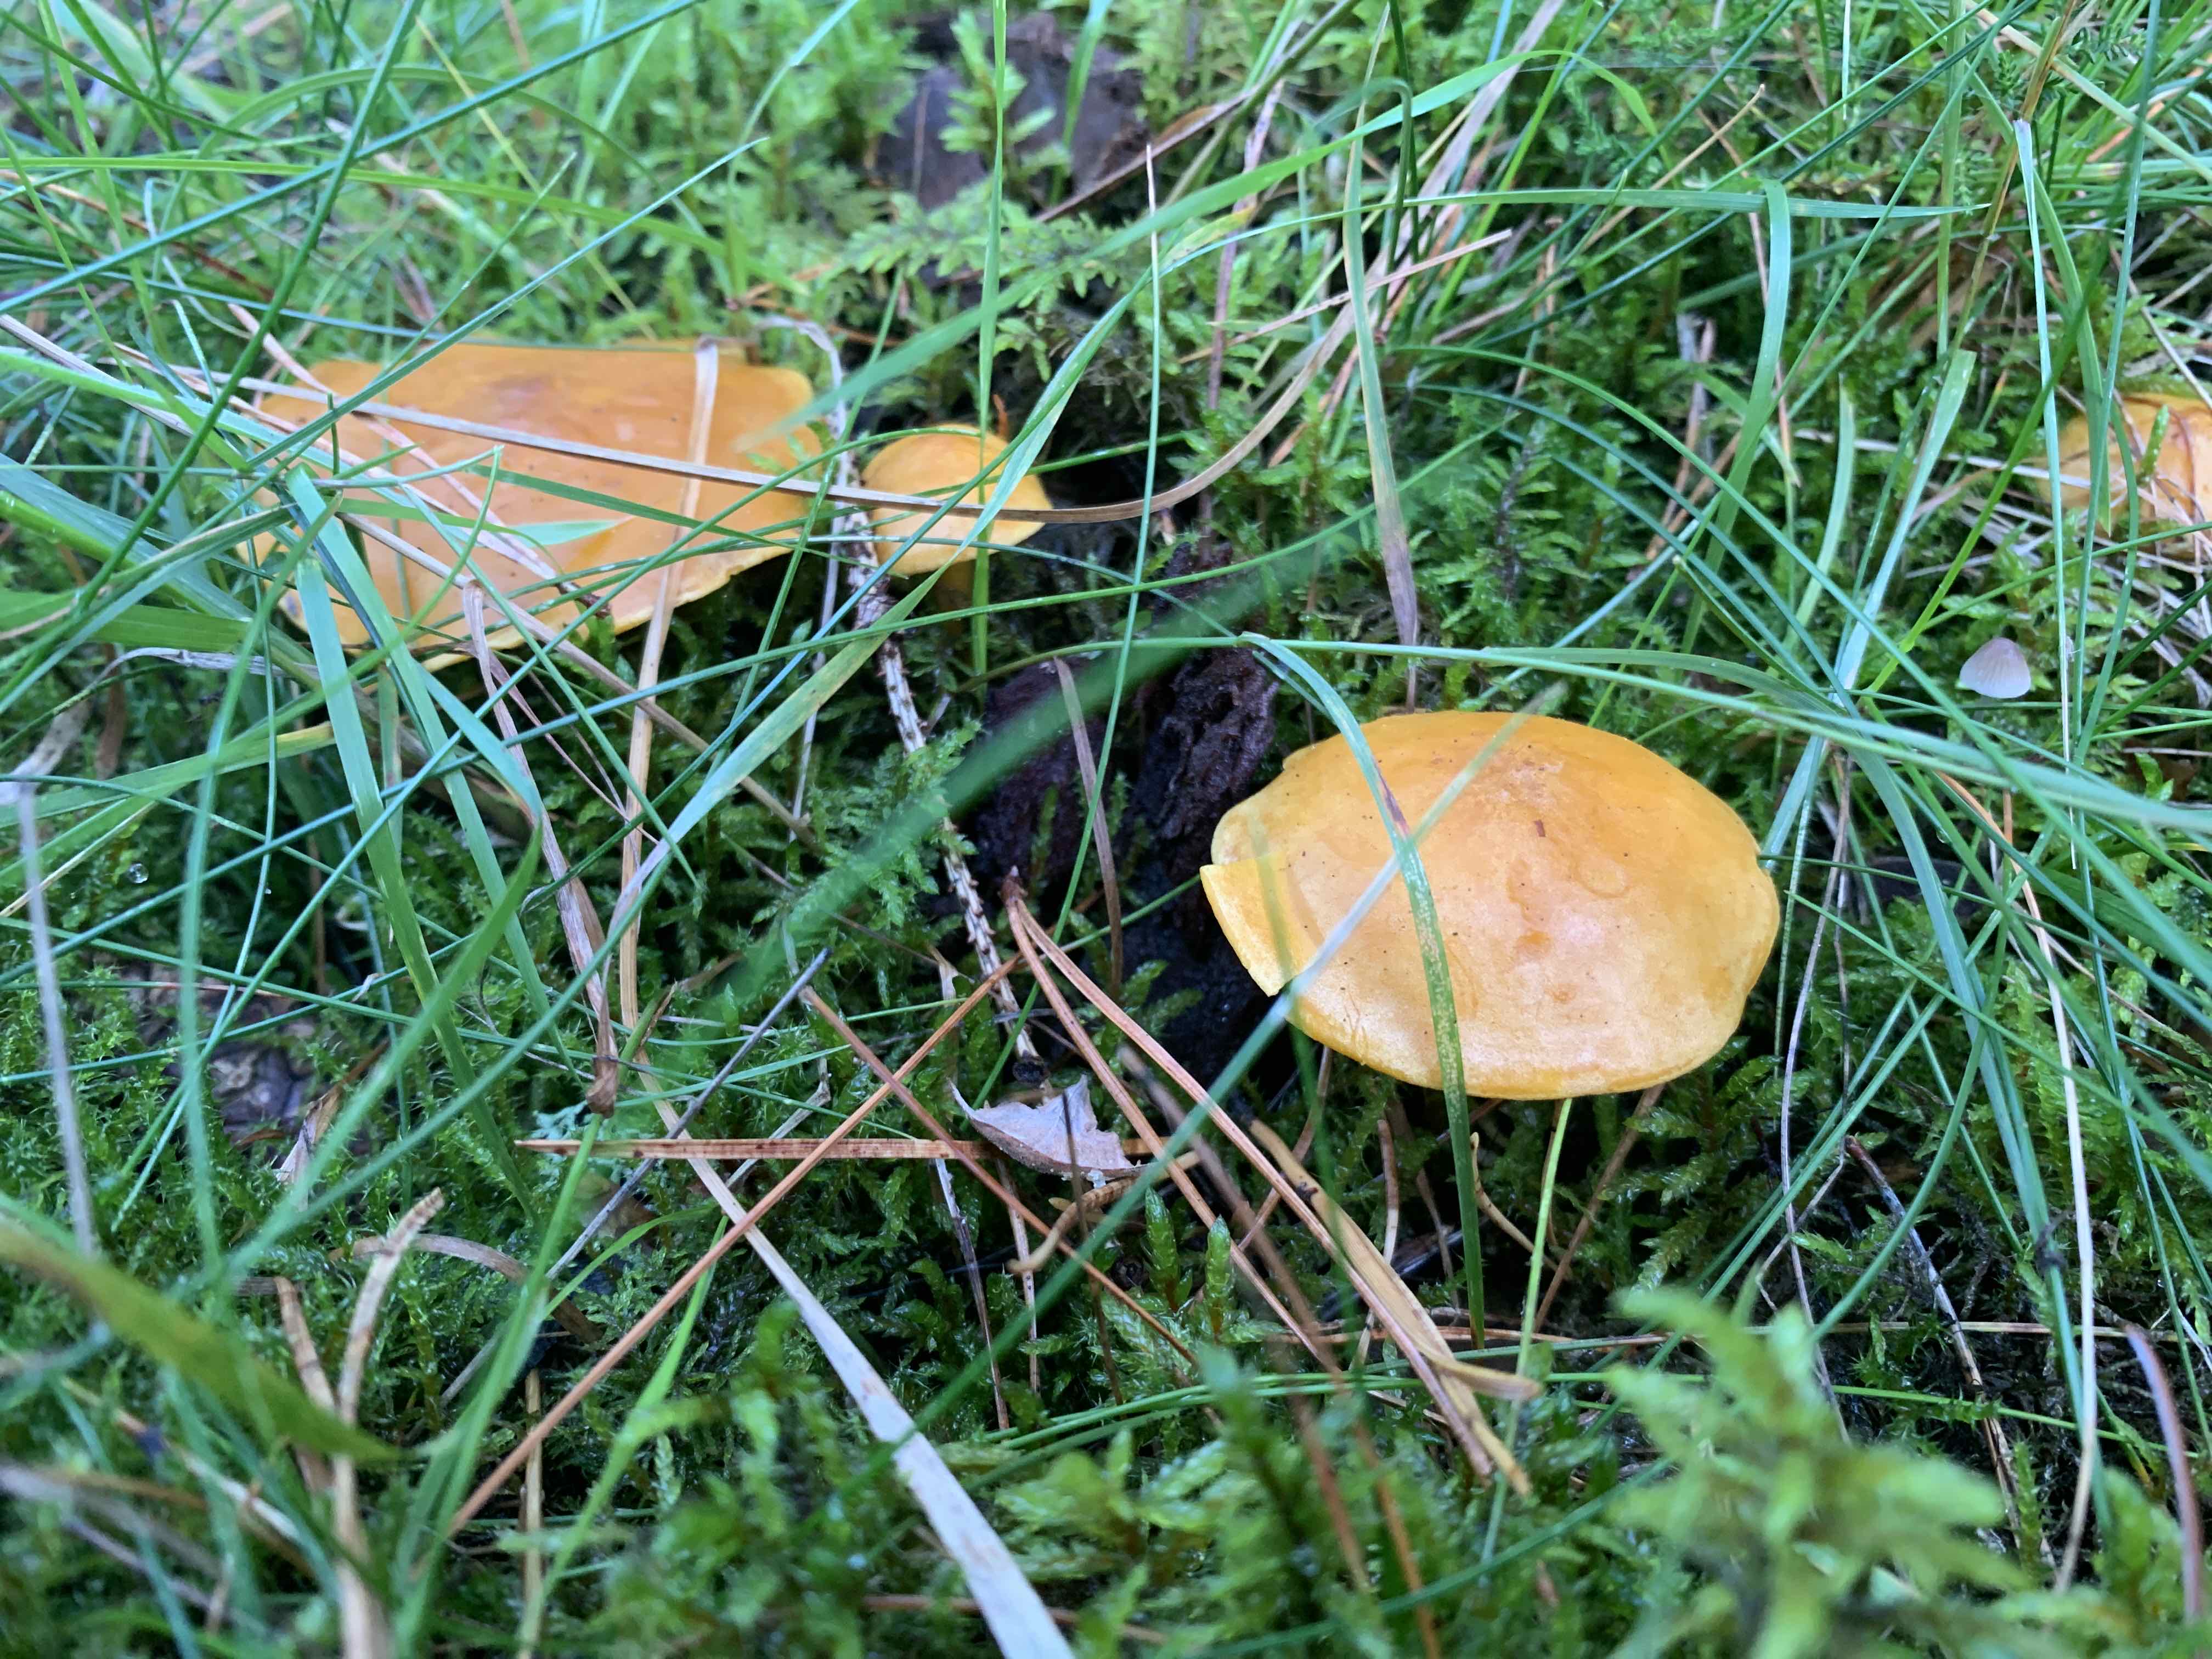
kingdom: Fungi
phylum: Basidiomycota
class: Agaricomycetes
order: Agaricales
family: Lyophyllaceae
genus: Calocybe
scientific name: Calocybe chrysenteron
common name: brandgul fagerhat
